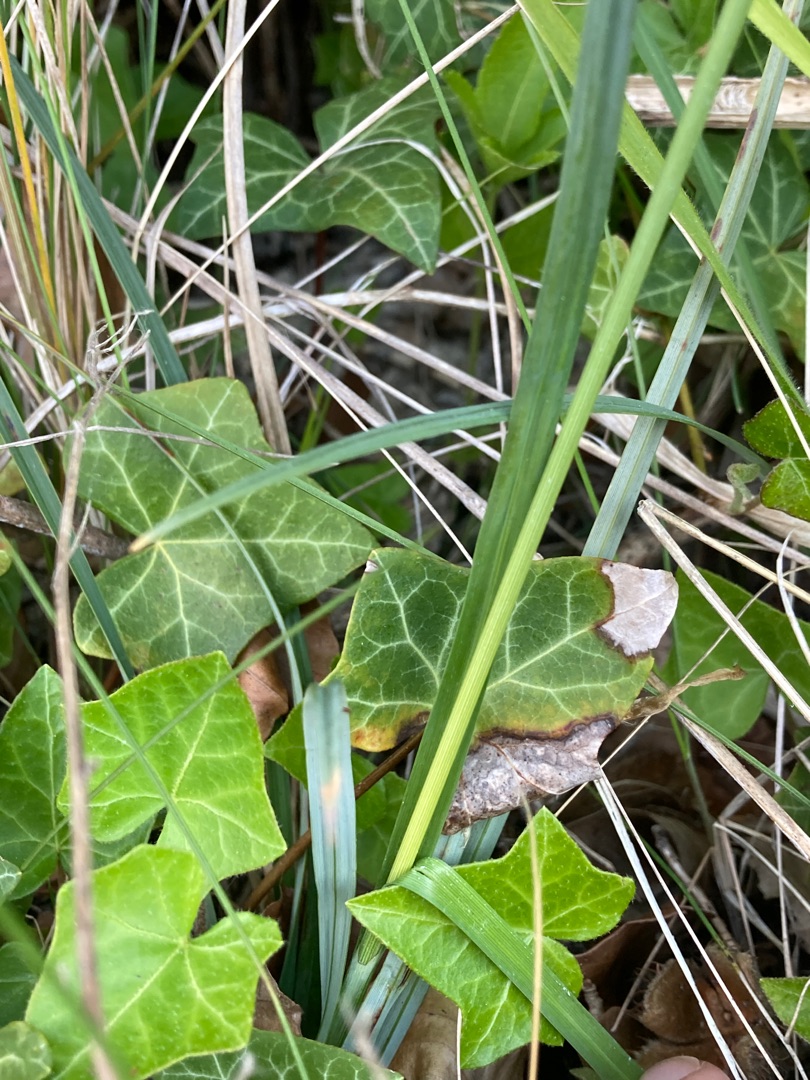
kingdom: Plantae
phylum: Tracheophyta
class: Liliopsida
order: Poales
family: Cyperaceae
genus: Carex
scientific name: Carex flacca
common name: Blågrøn star
